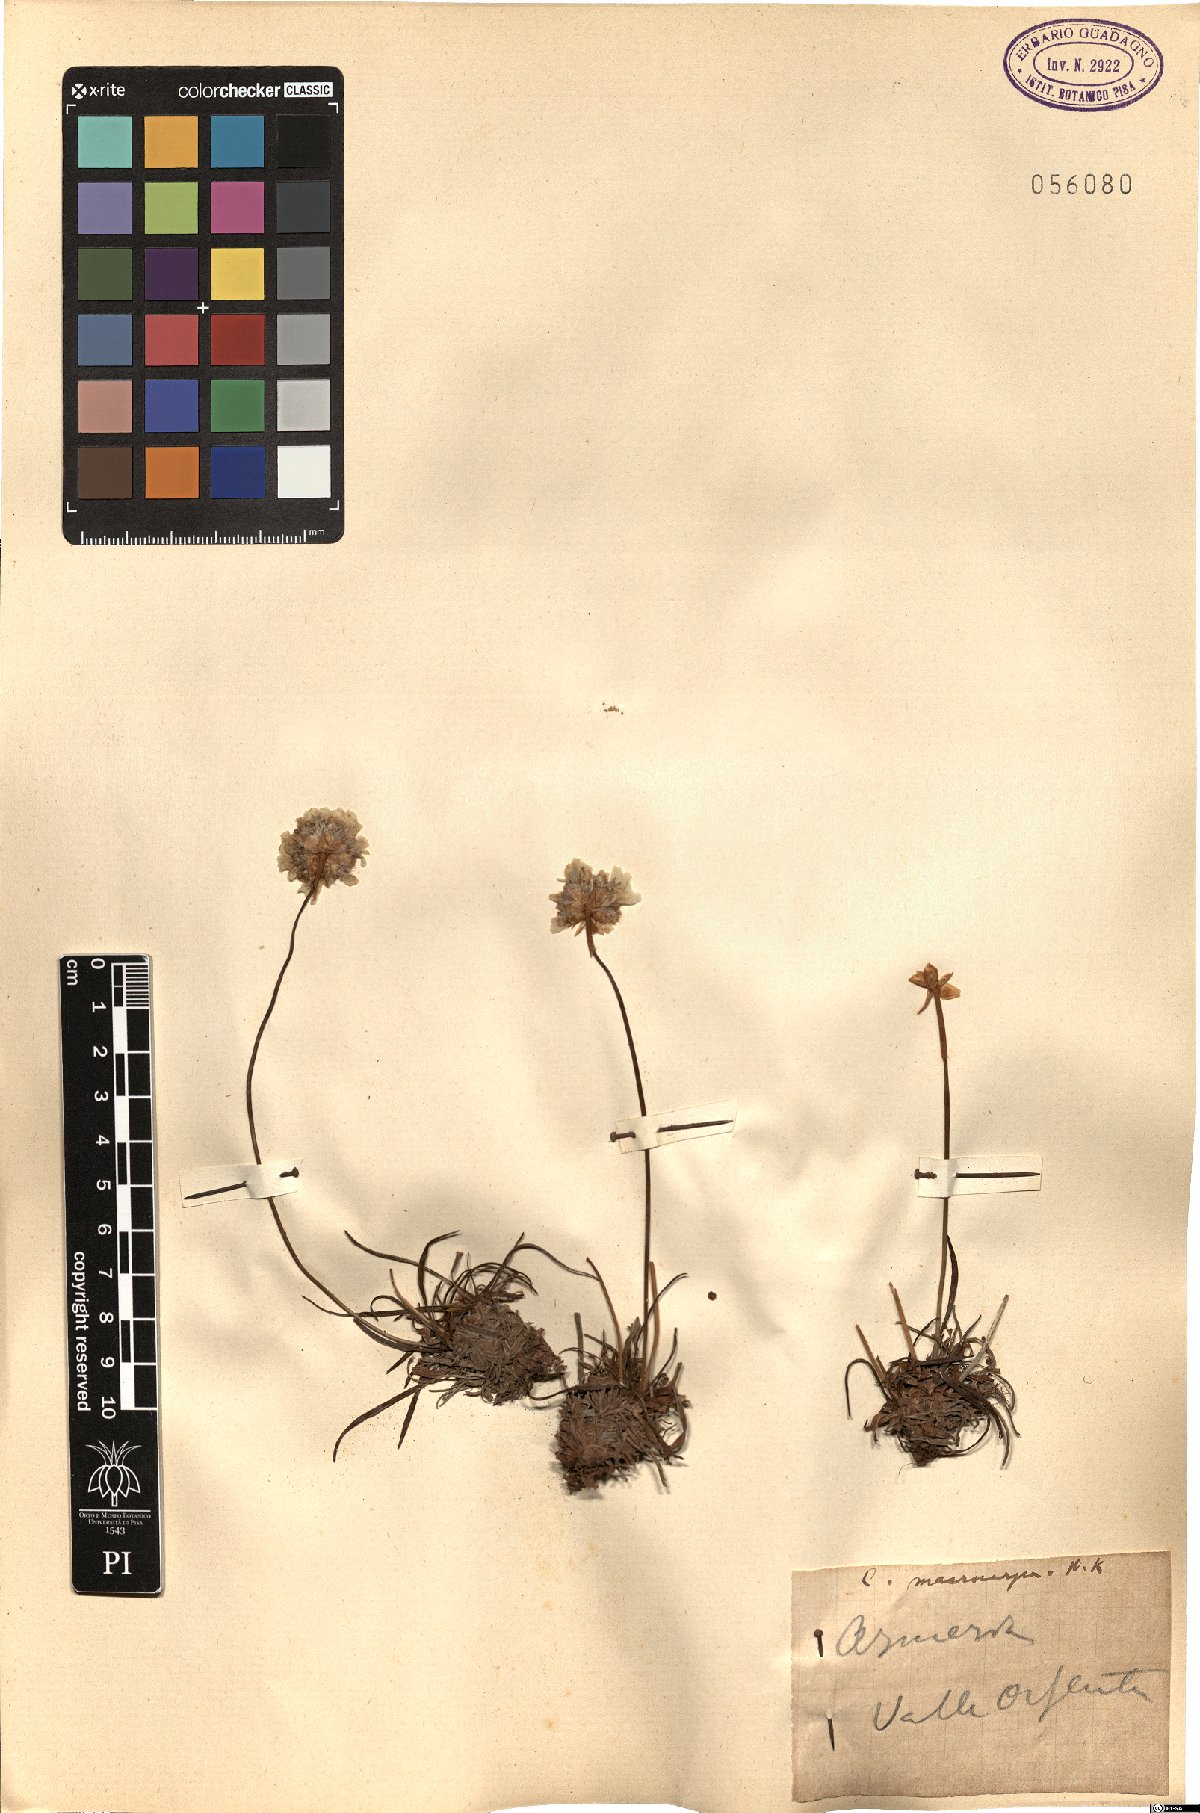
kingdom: Plantae
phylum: Tracheophyta
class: Magnoliopsida
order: Caryophyllales
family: Plumbaginaceae
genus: Armeria
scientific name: Armeria
